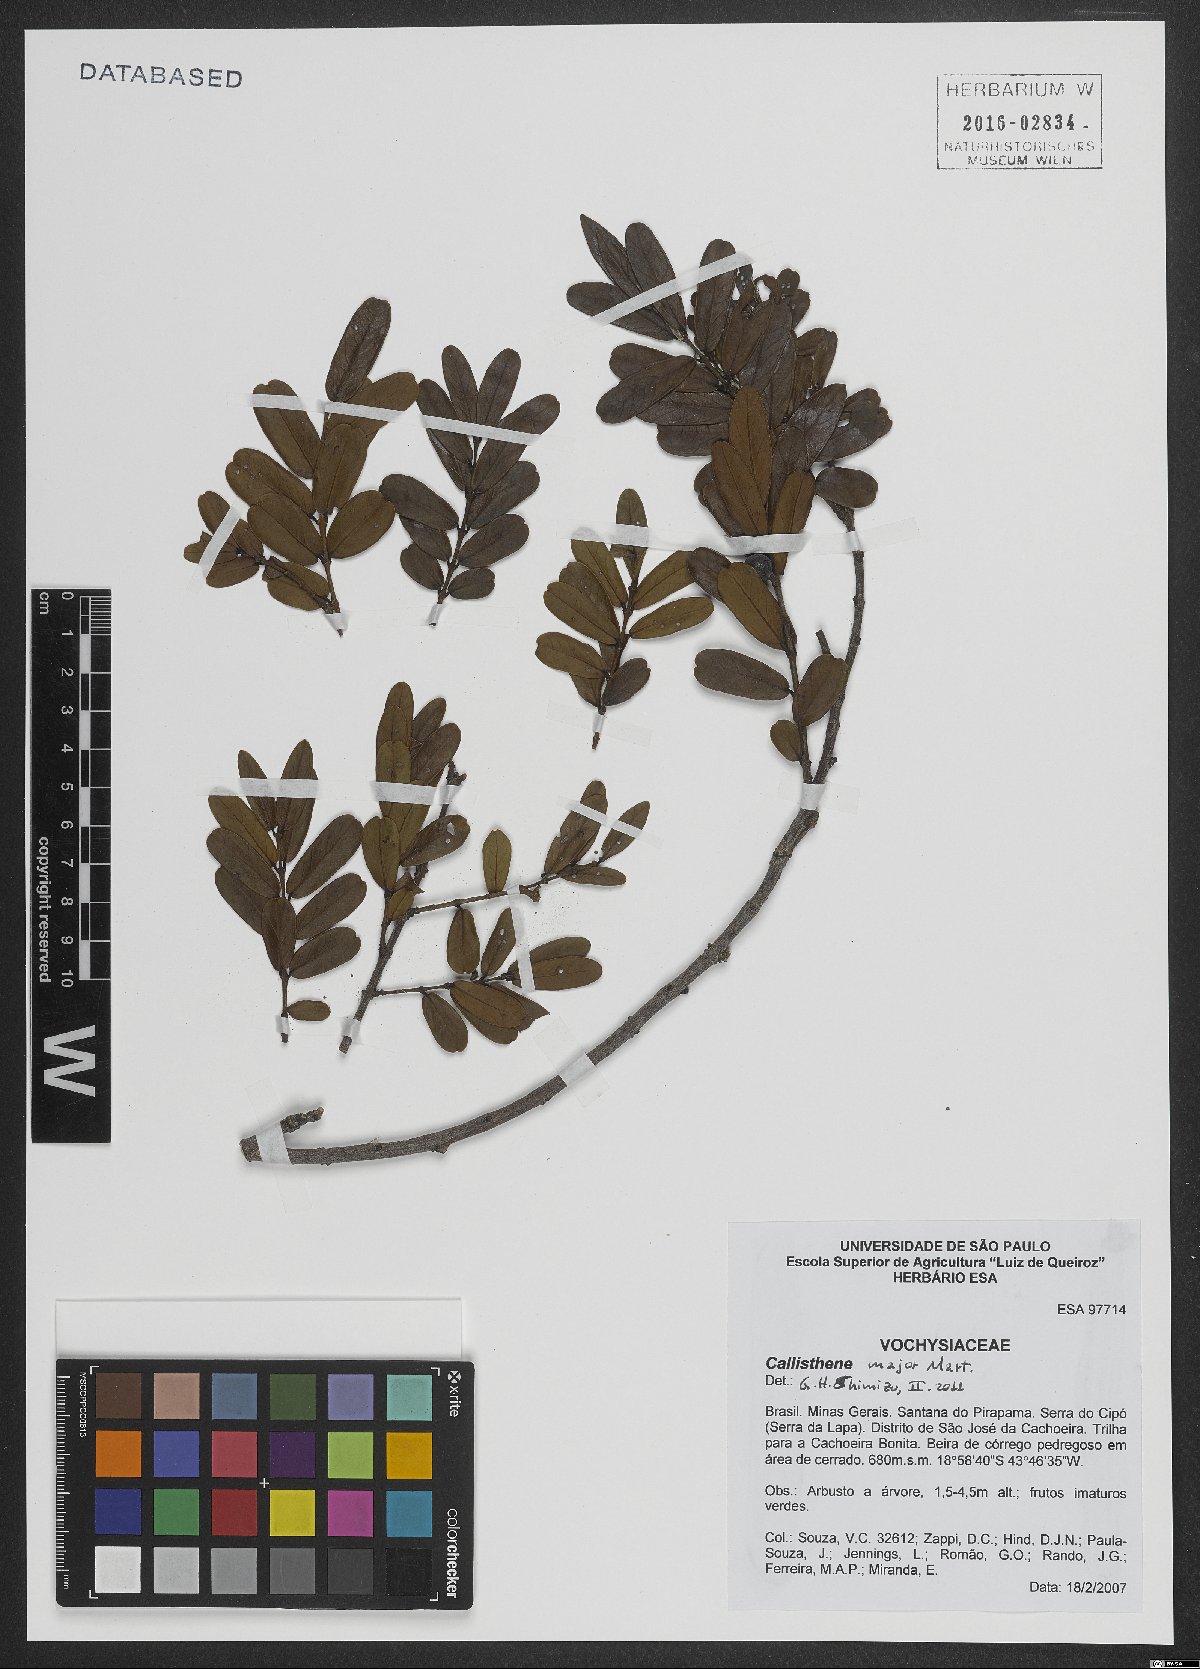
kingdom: Plantae
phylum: Tracheophyta
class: Magnoliopsida
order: Myrtales
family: Vochysiaceae
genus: Callisthene
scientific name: Callisthene major
